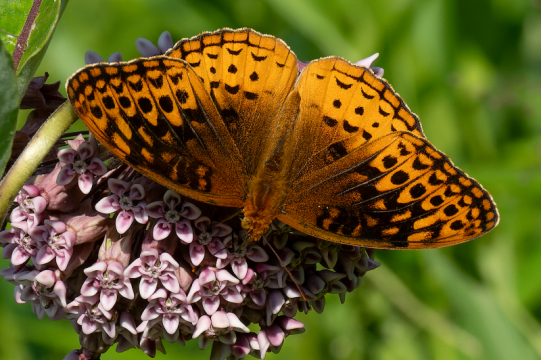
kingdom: Animalia
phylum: Arthropoda
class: Insecta
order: Lepidoptera
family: Nymphalidae
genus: Speyeria
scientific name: Speyeria cybele
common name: Great Spangled Fritillary
